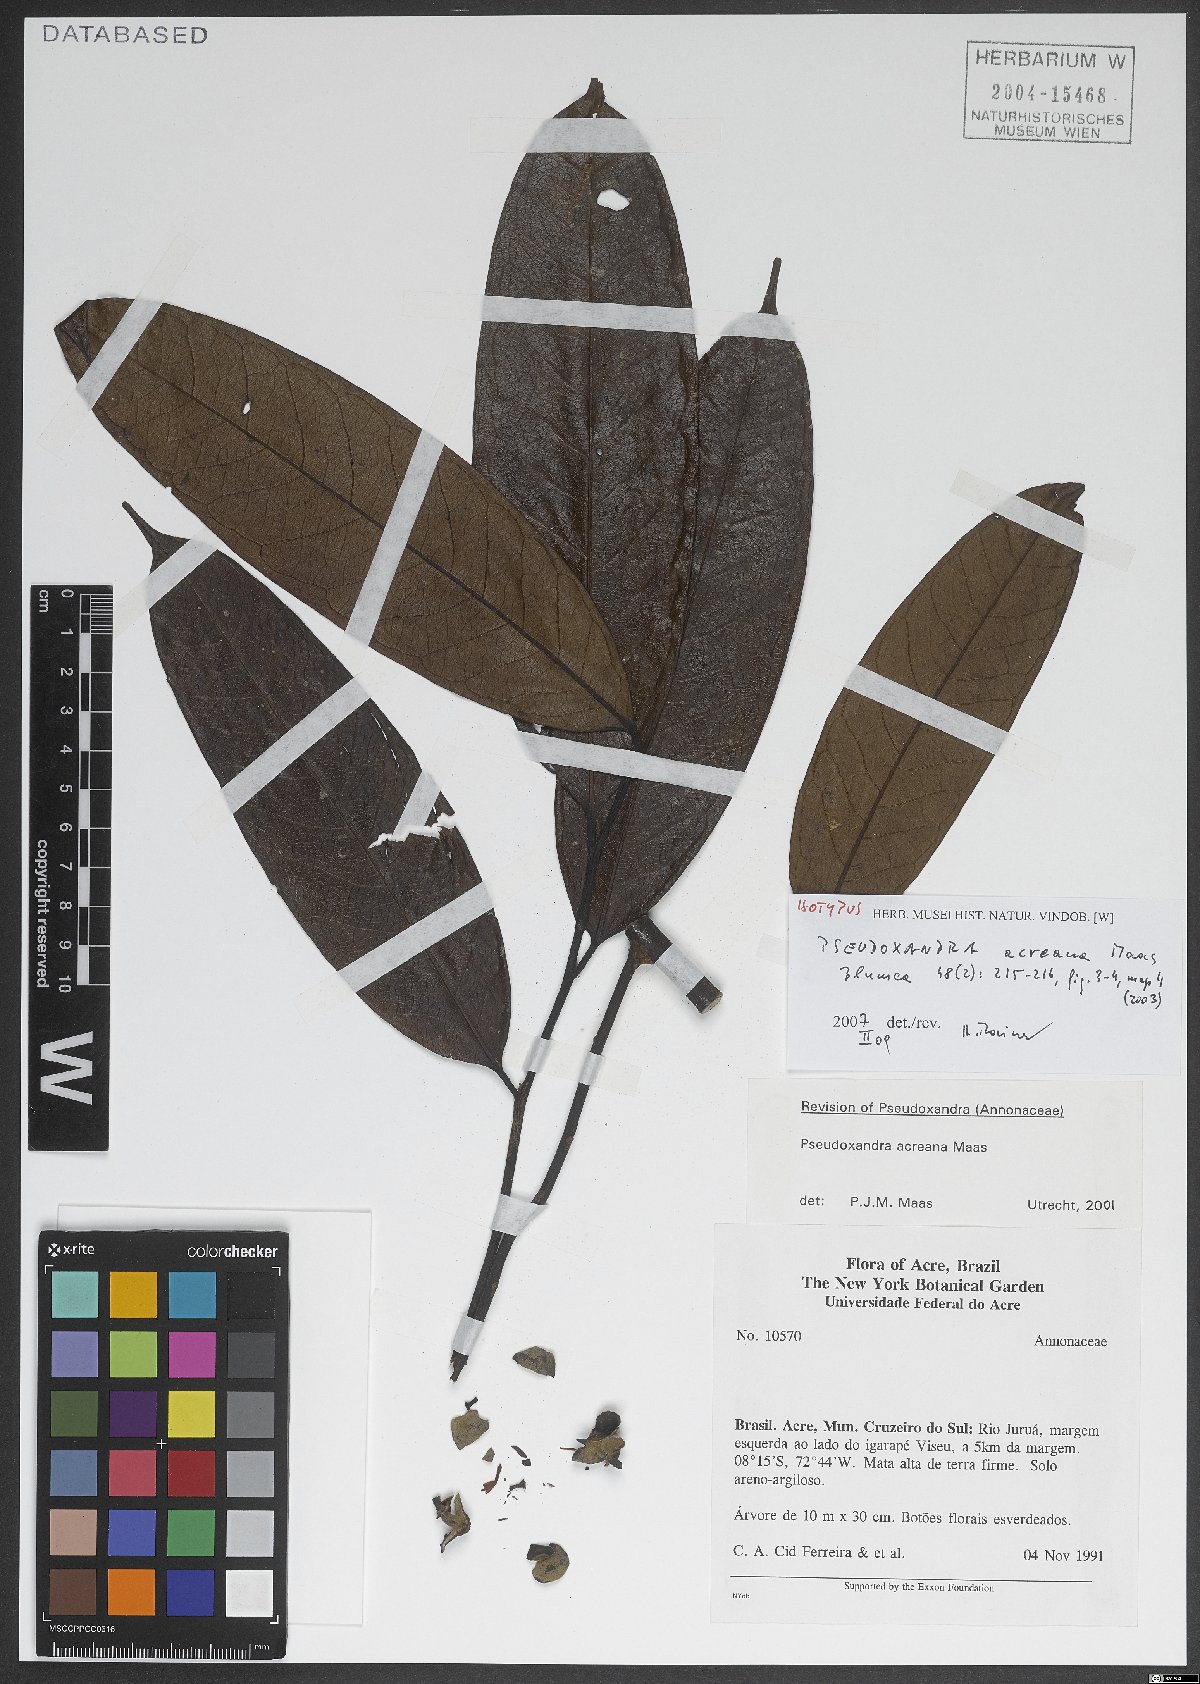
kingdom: Plantae
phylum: Tracheophyta
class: Magnoliopsida
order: Magnoliales
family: Annonaceae
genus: Pseudoxandra
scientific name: Pseudoxandra acreana
